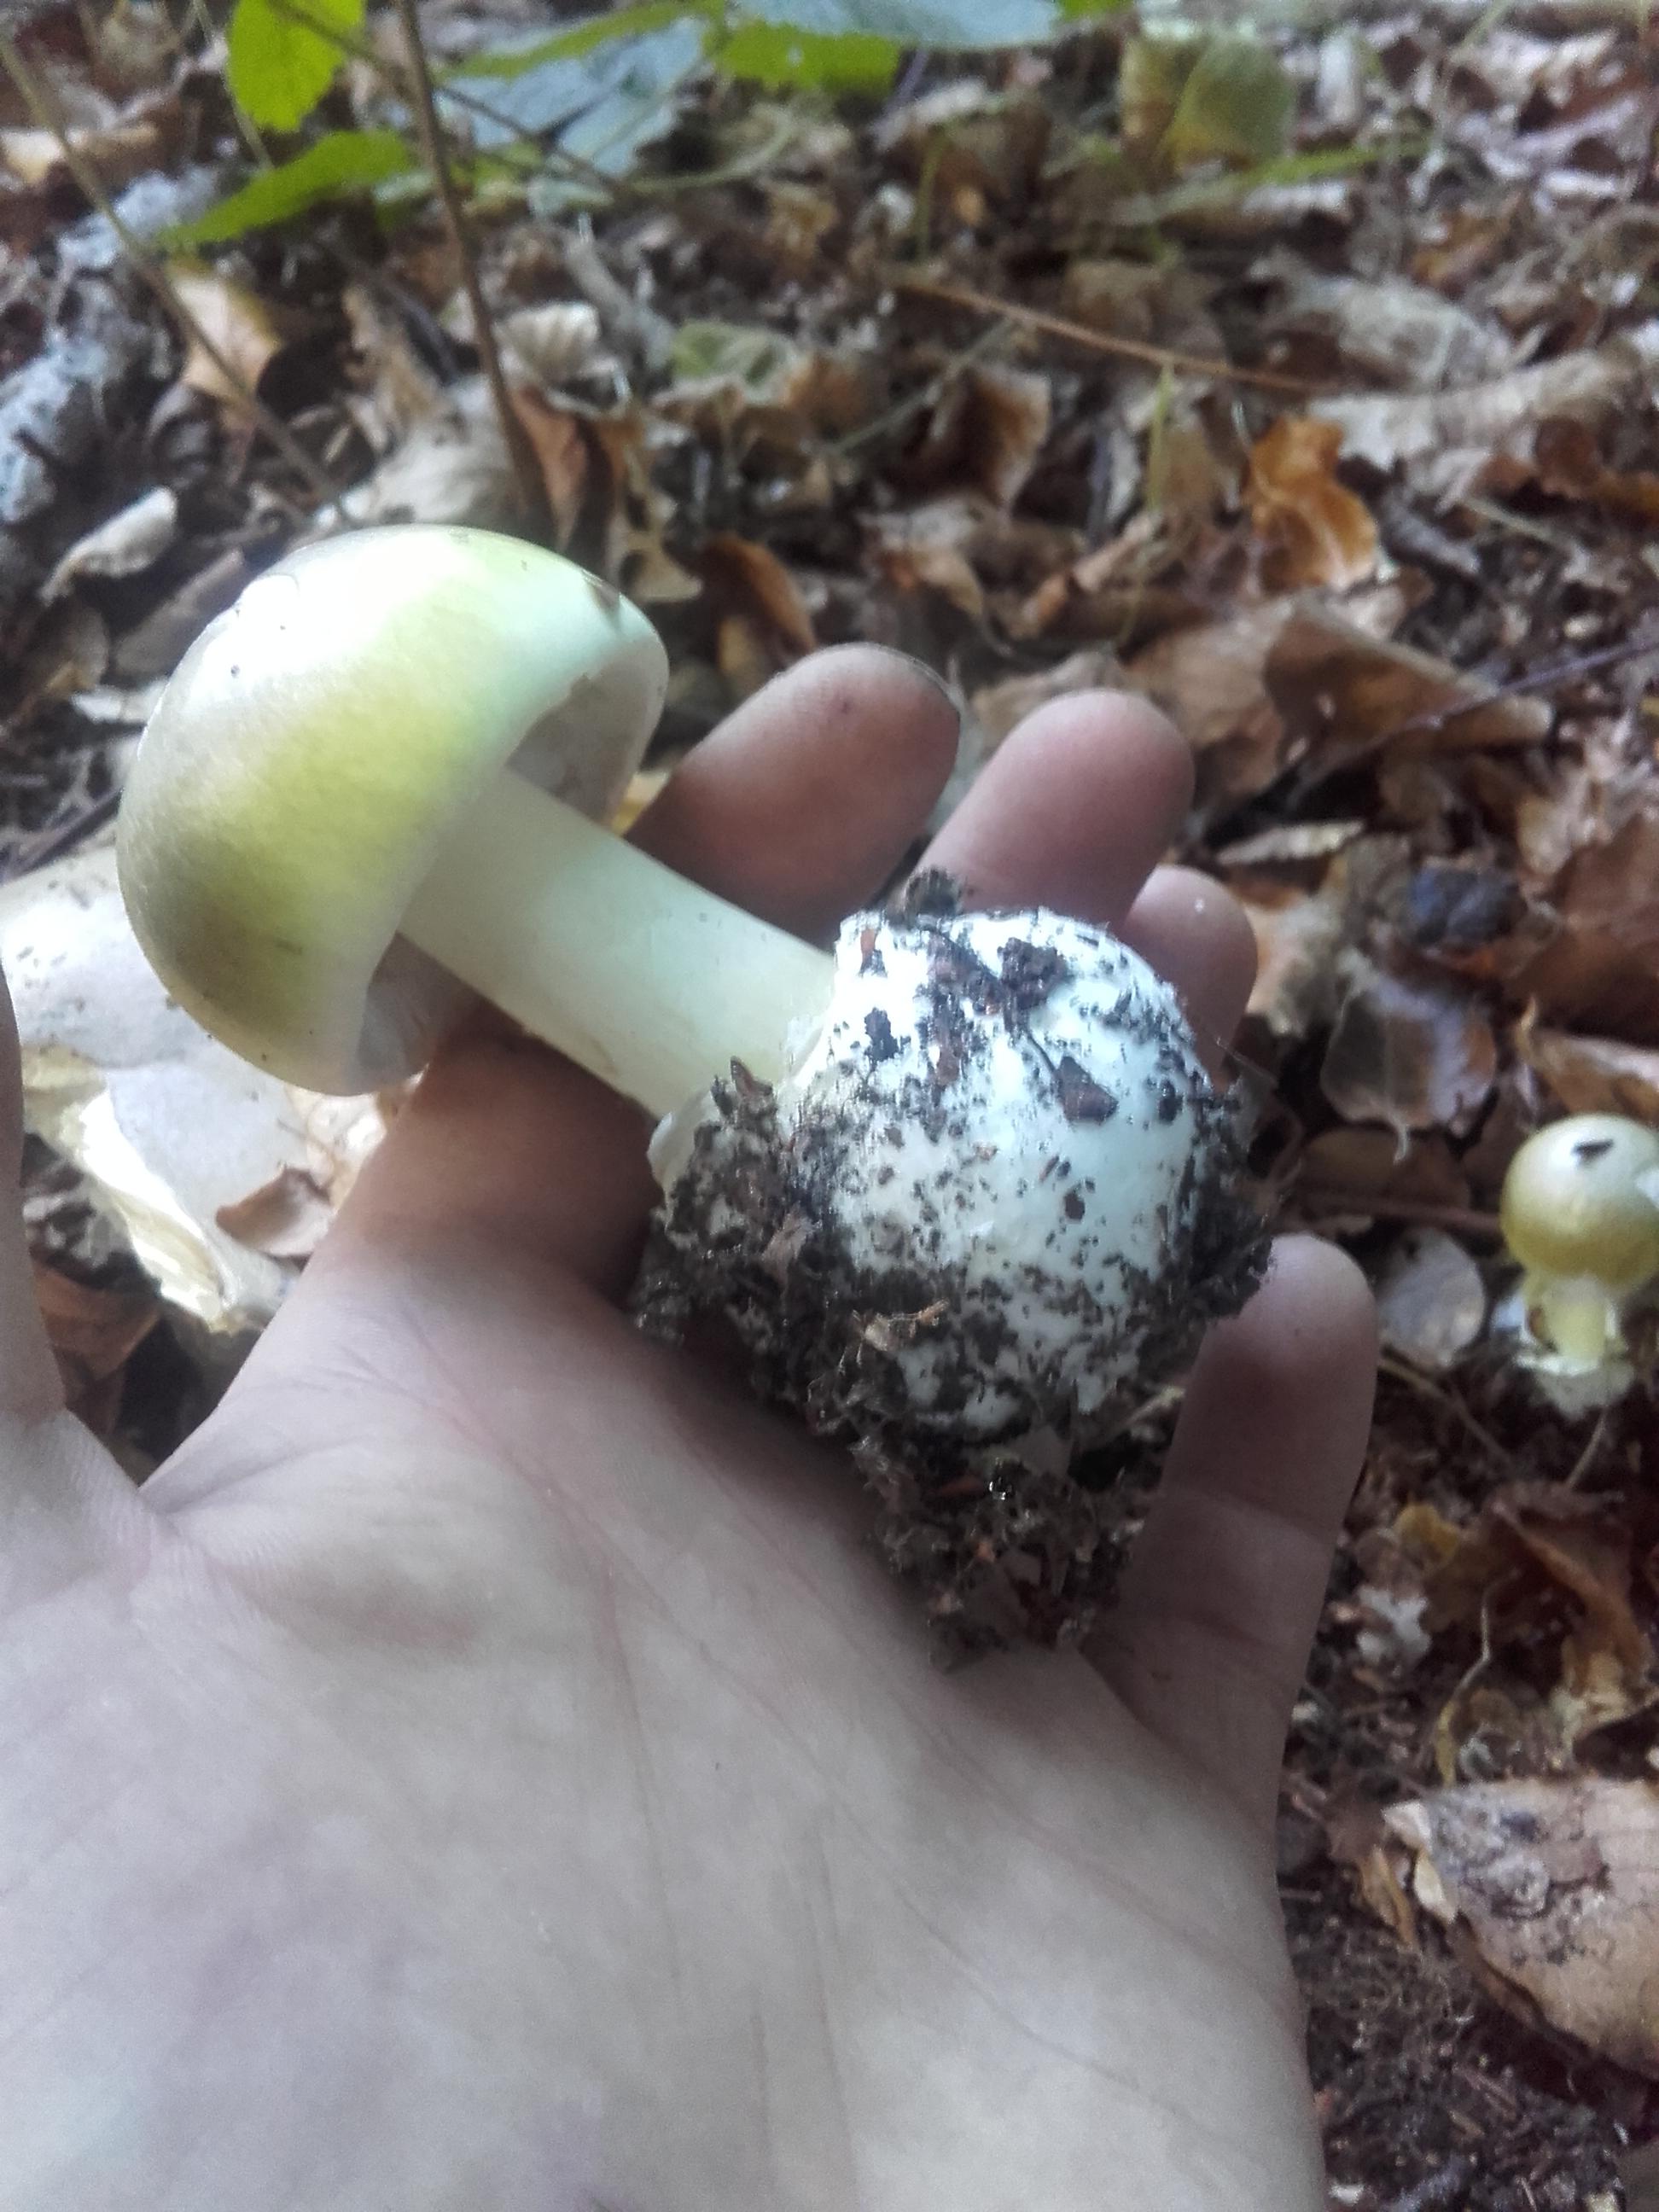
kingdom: Fungi
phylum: Basidiomycota
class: Agaricomycetes
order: Agaricales
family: Amanitaceae
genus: Amanita
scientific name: Amanita phalloides
